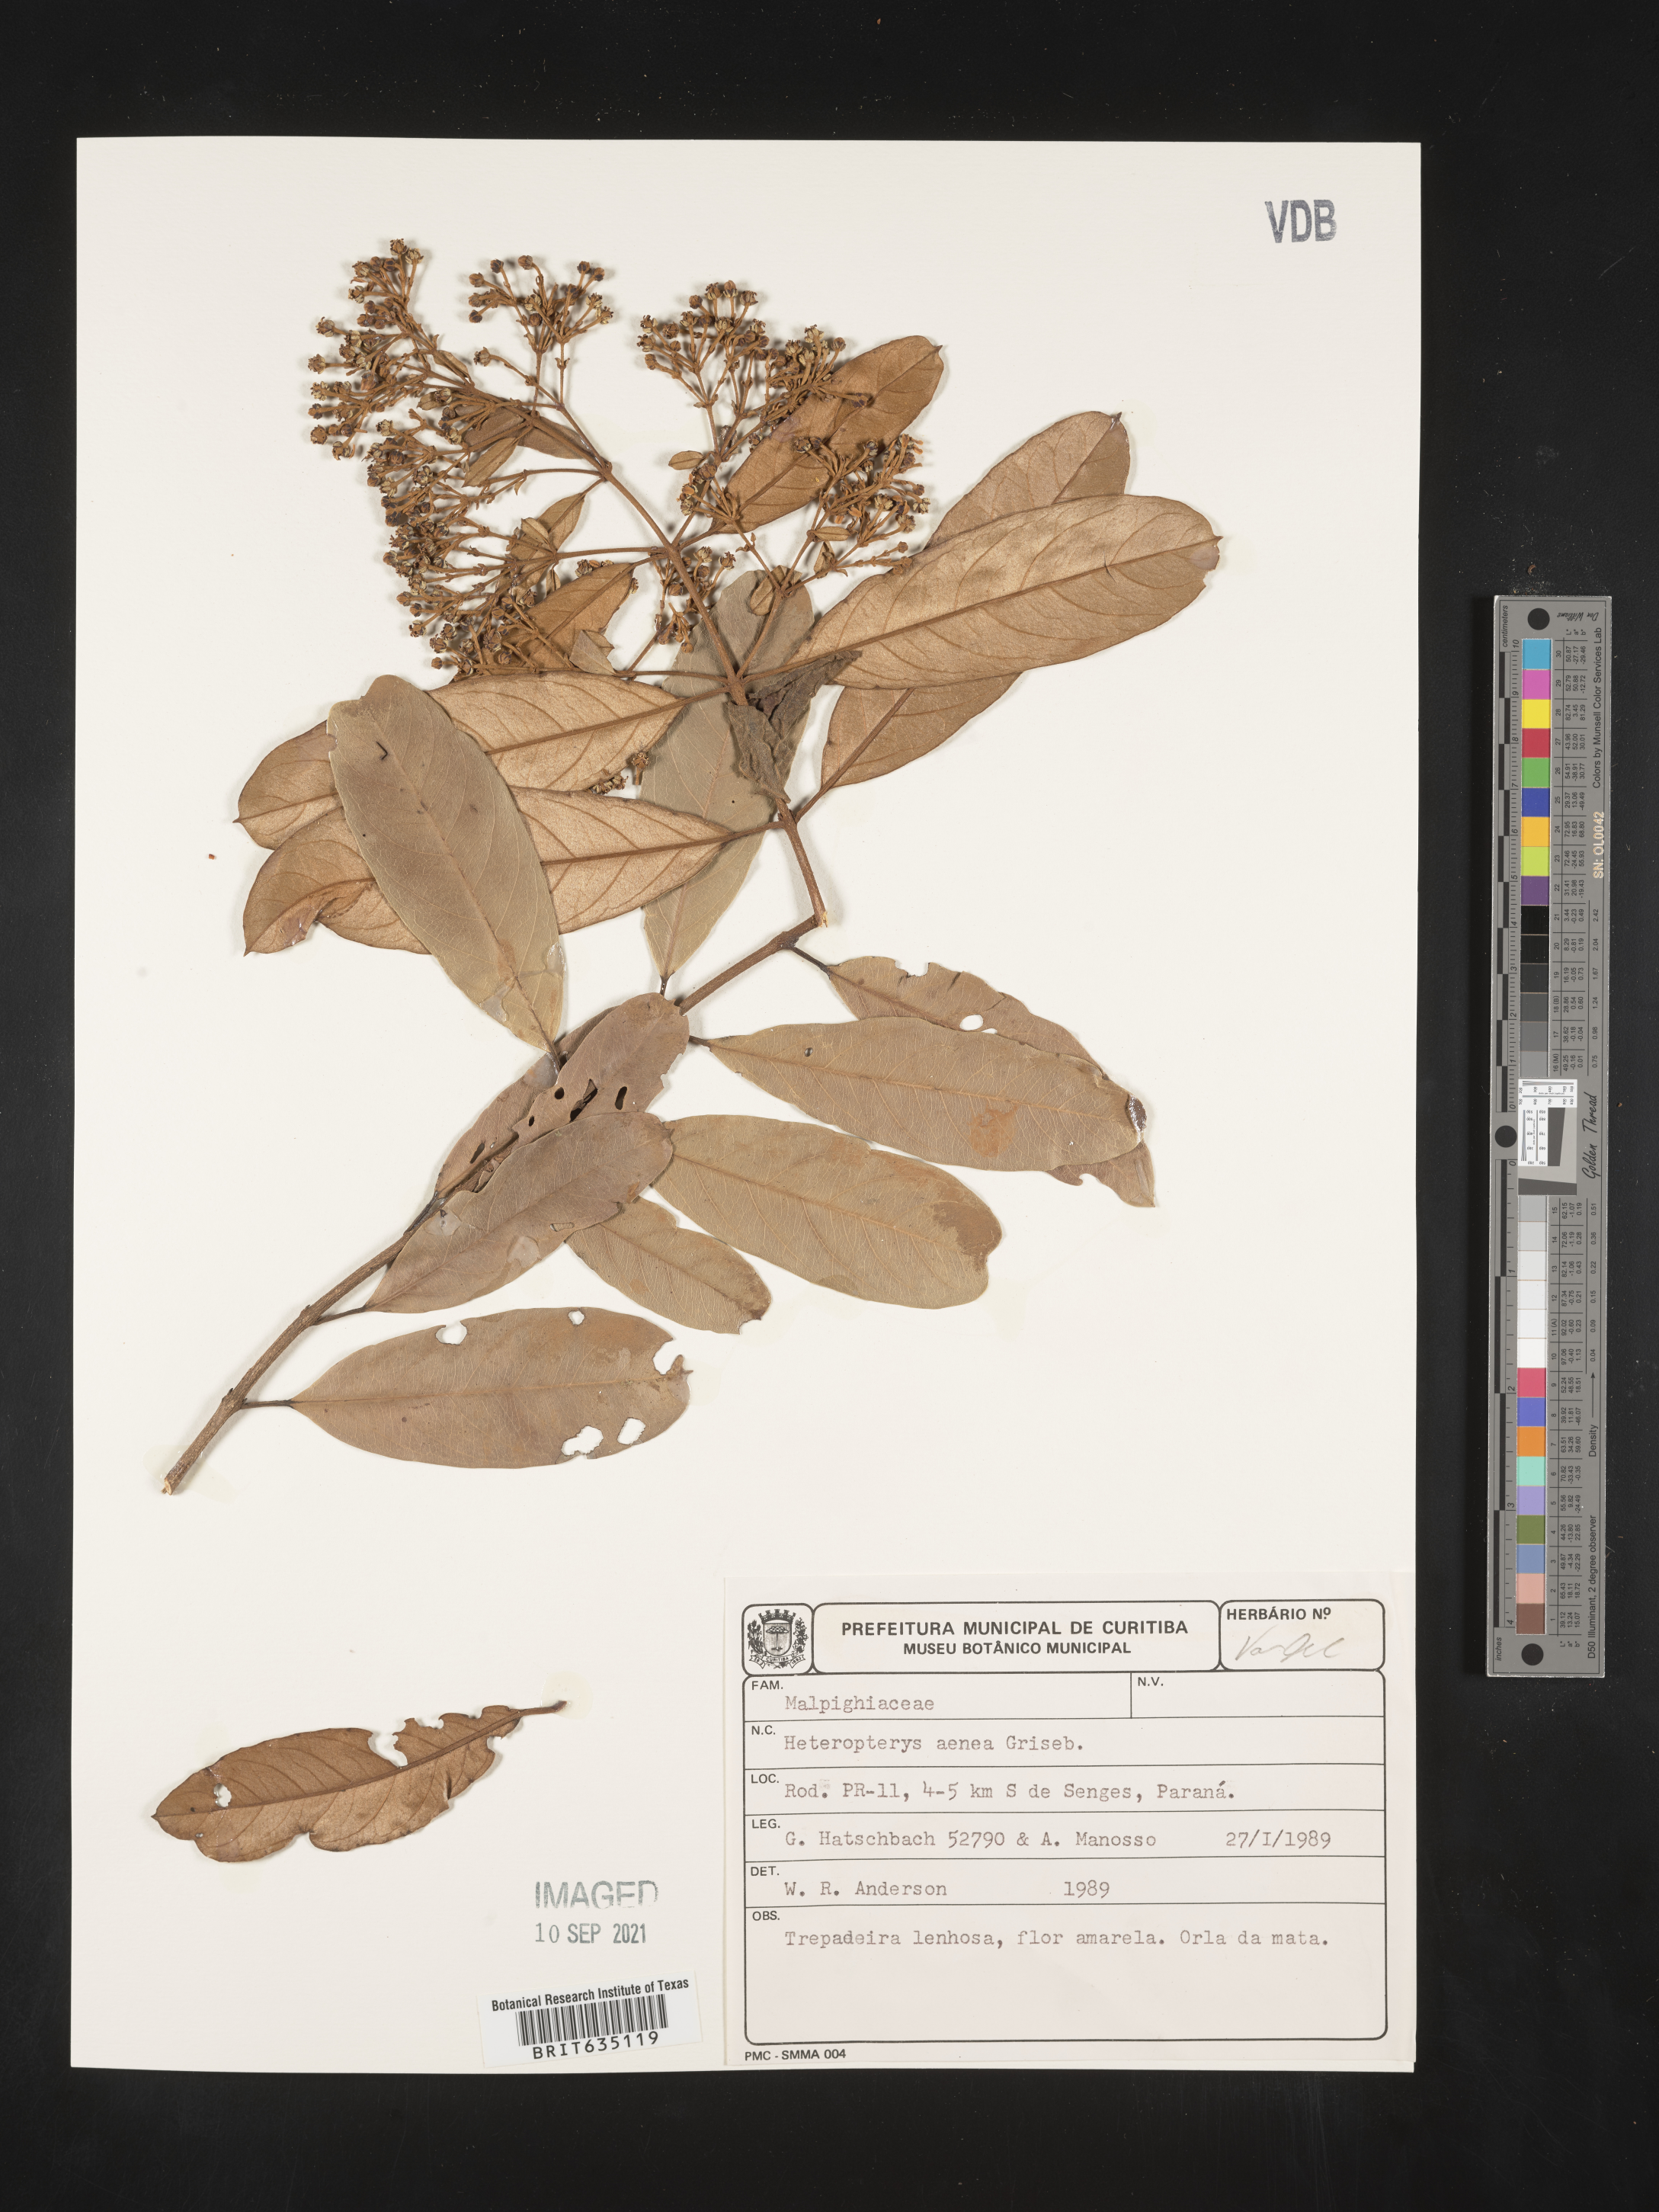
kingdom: Plantae
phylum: Tracheophyta
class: Polypodiopsida
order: Polypodiales
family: Pteridaceae
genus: Heteropteris
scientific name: Heteropteris
